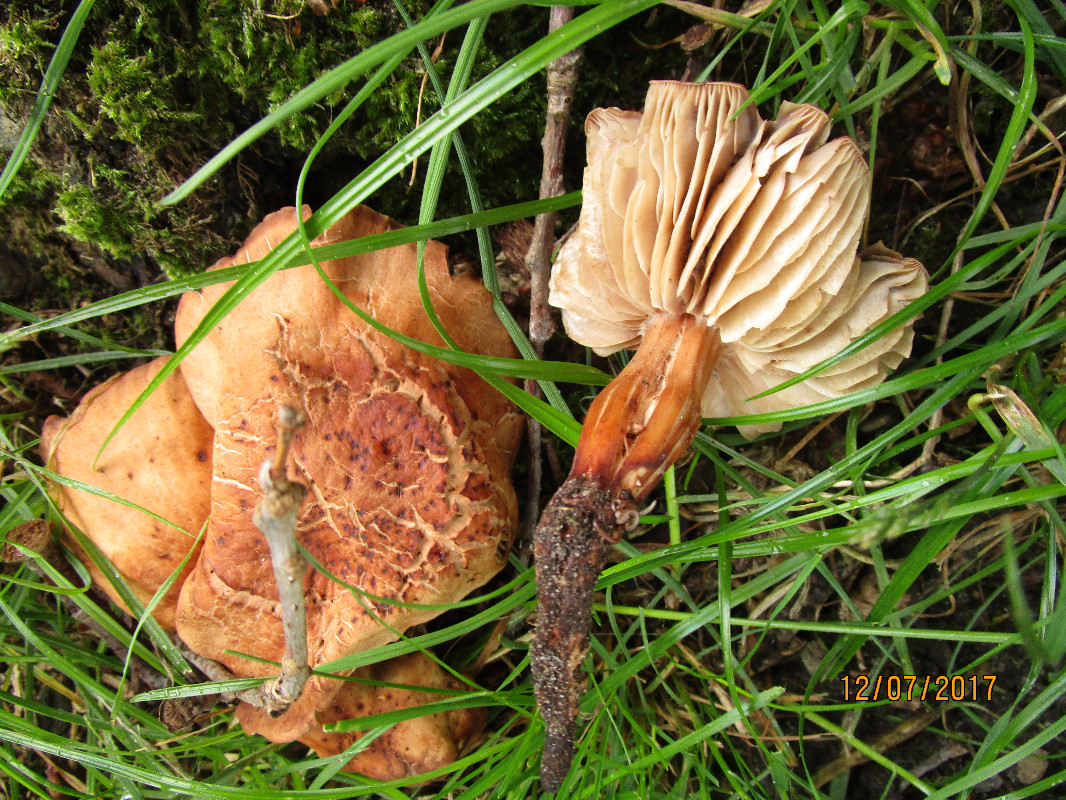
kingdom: Fungi
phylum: Basidiomycota
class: Agaricomycetes
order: Agaricales
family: Omphalotaceae
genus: Gymnopus
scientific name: Gymnopus fusipes
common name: tenstokket fladhat
